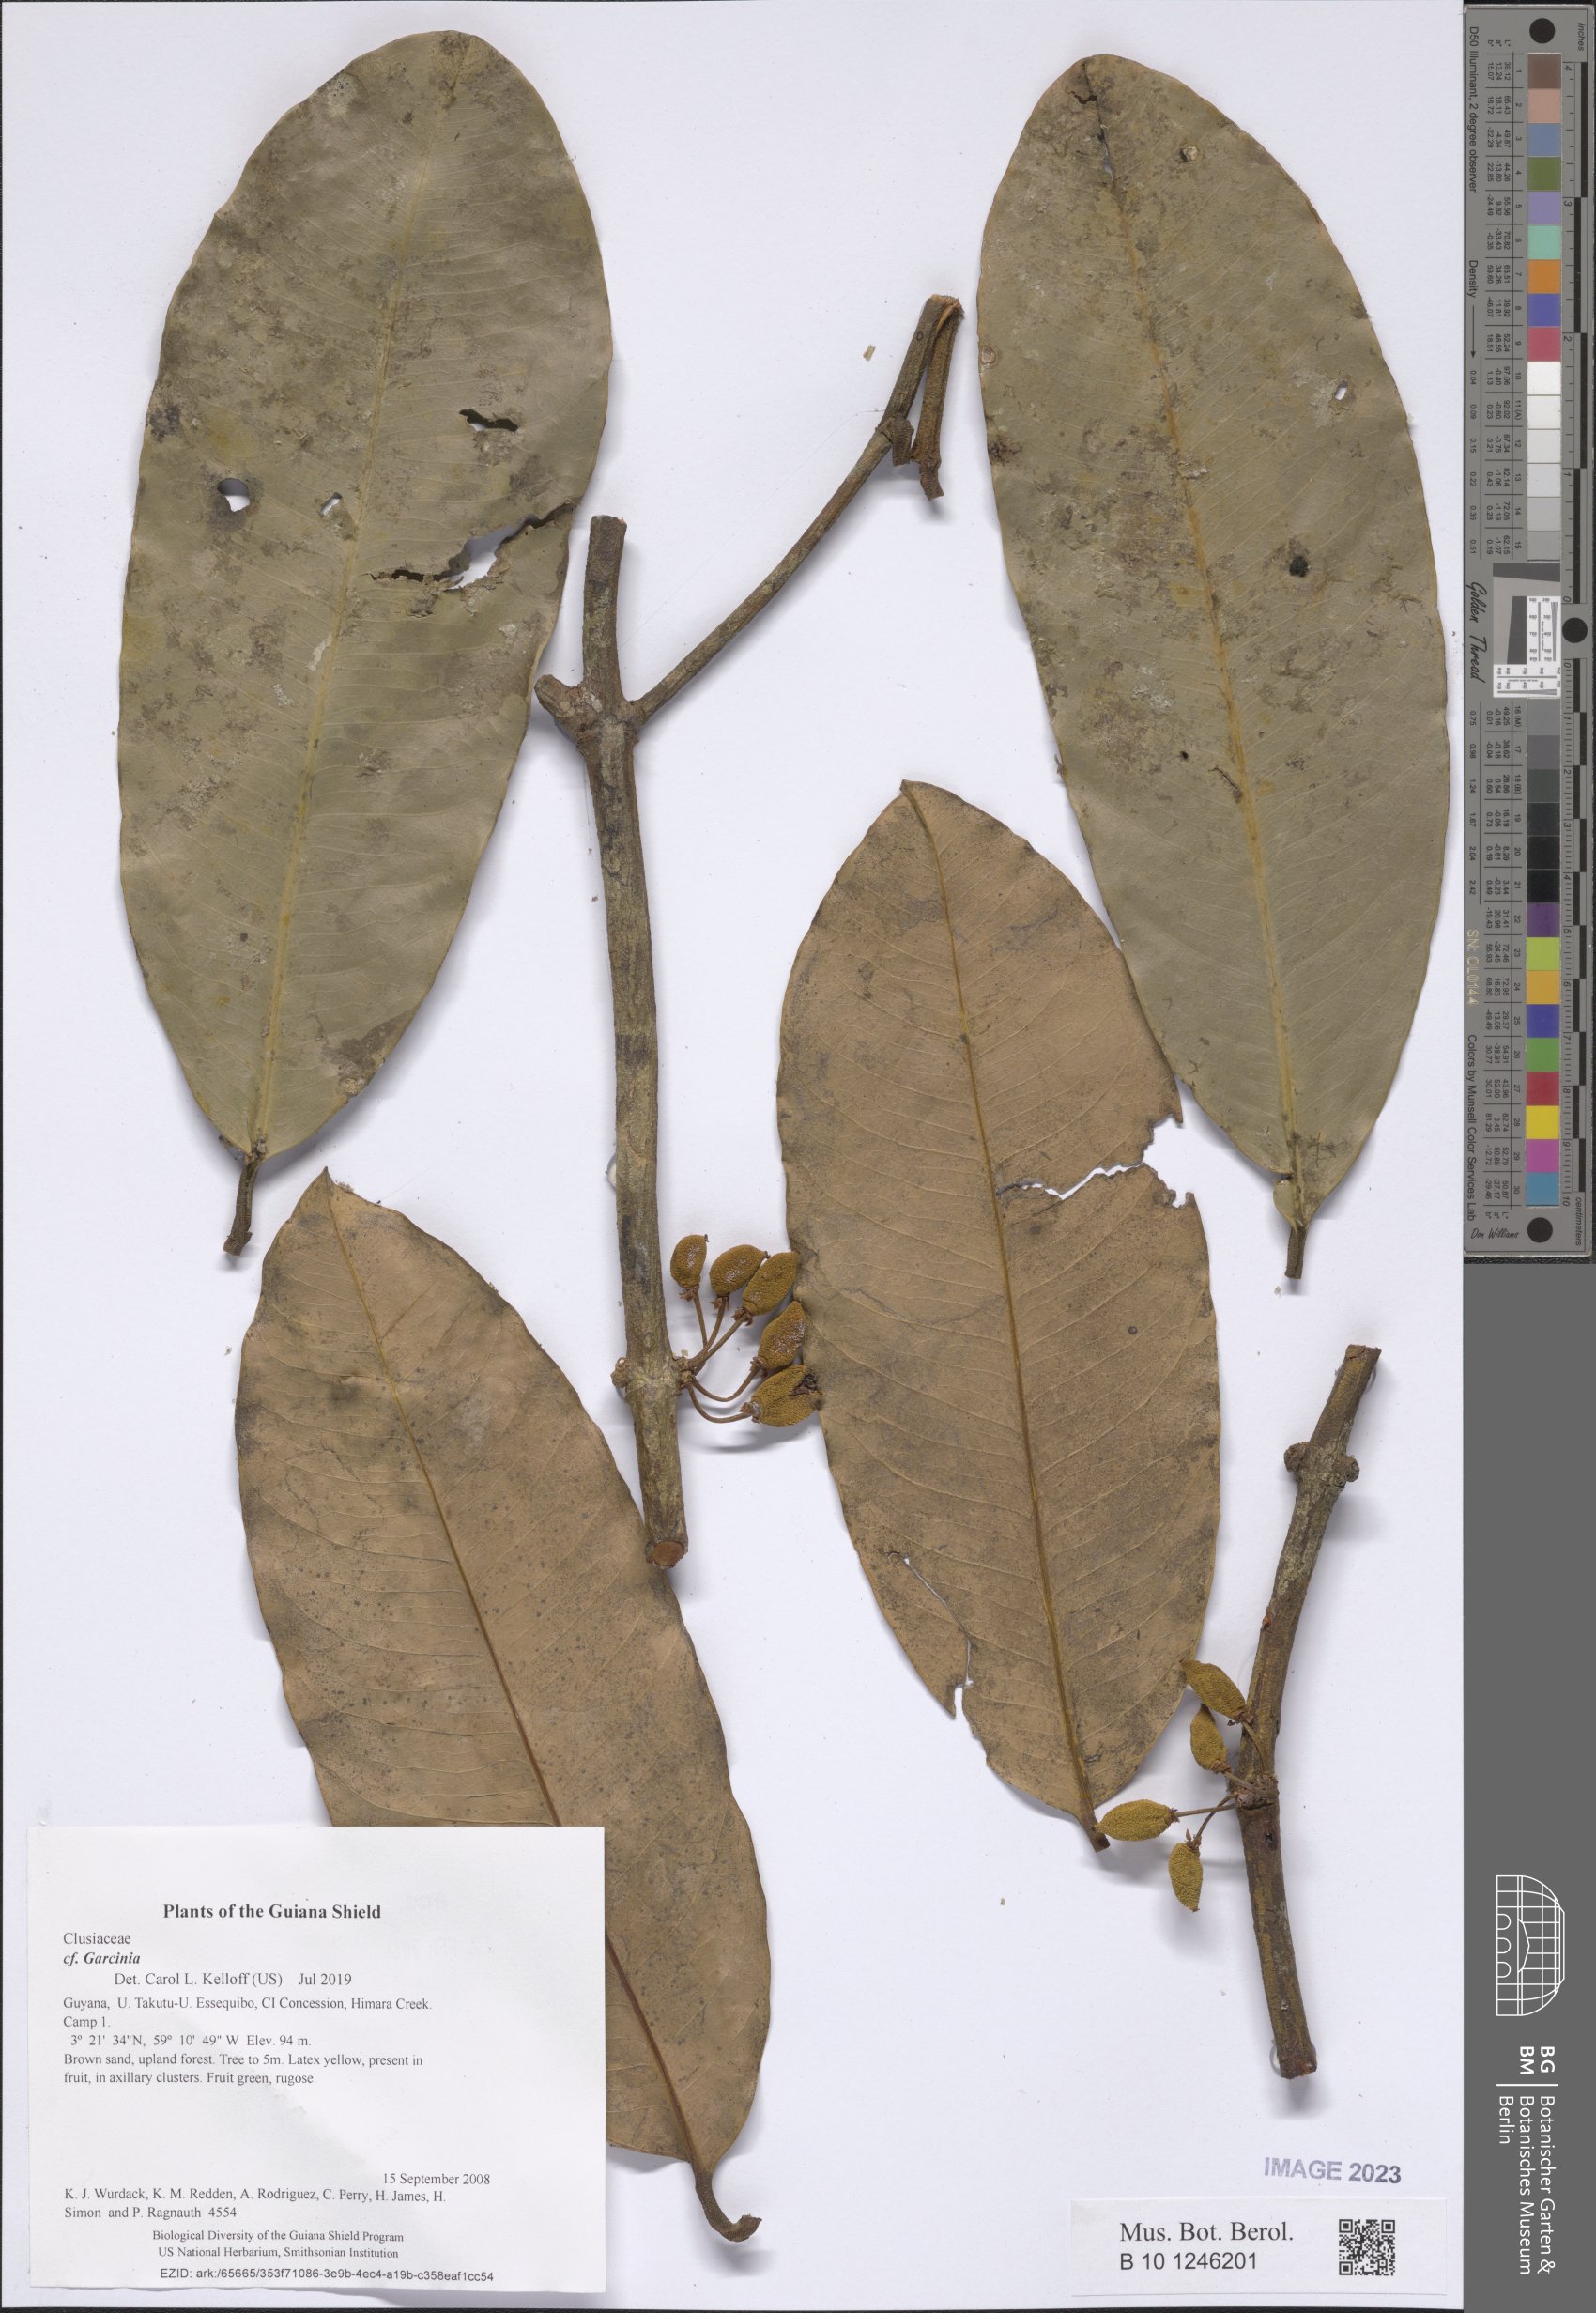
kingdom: Plantae
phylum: Tracheophyta
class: Magnoliopsida
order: Malpighiales
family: Clusiaceae
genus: Garcinia
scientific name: Garcinia
